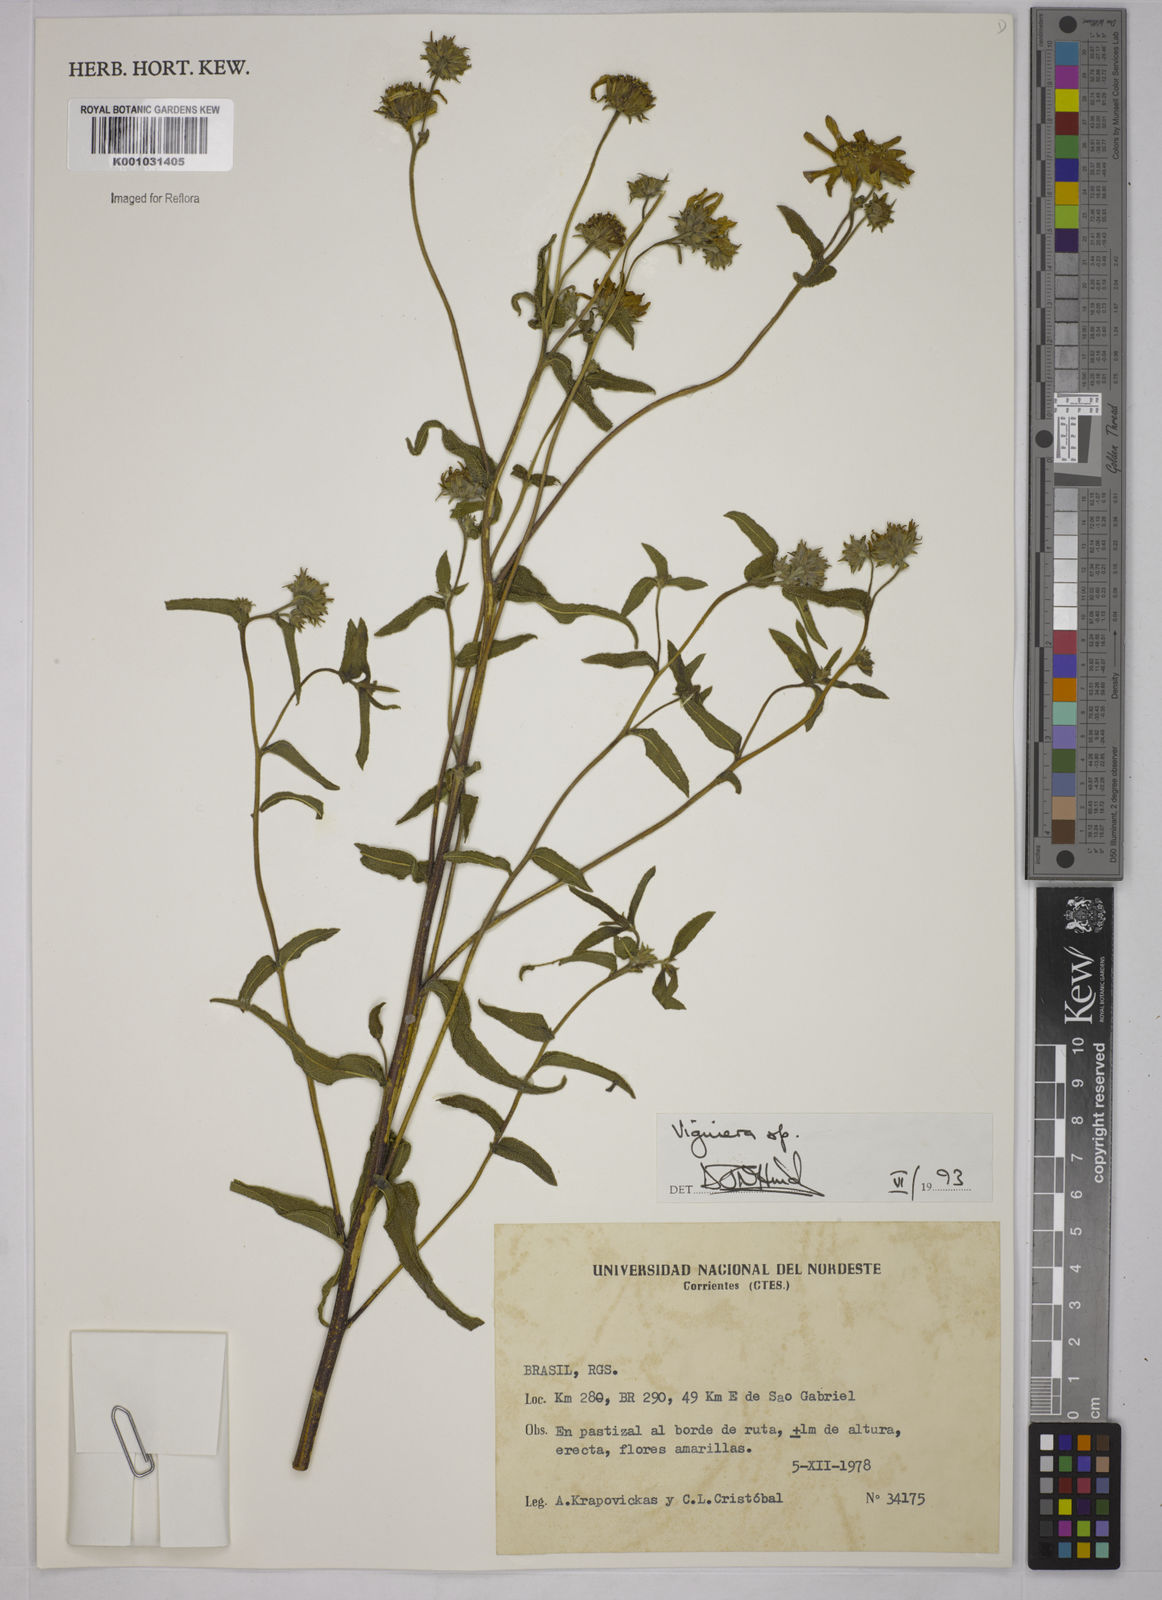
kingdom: Plantae
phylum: Tracheophyta
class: Magnoliopsida
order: Asterales
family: Asteraceae
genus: Viguiera
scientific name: Viguiera
